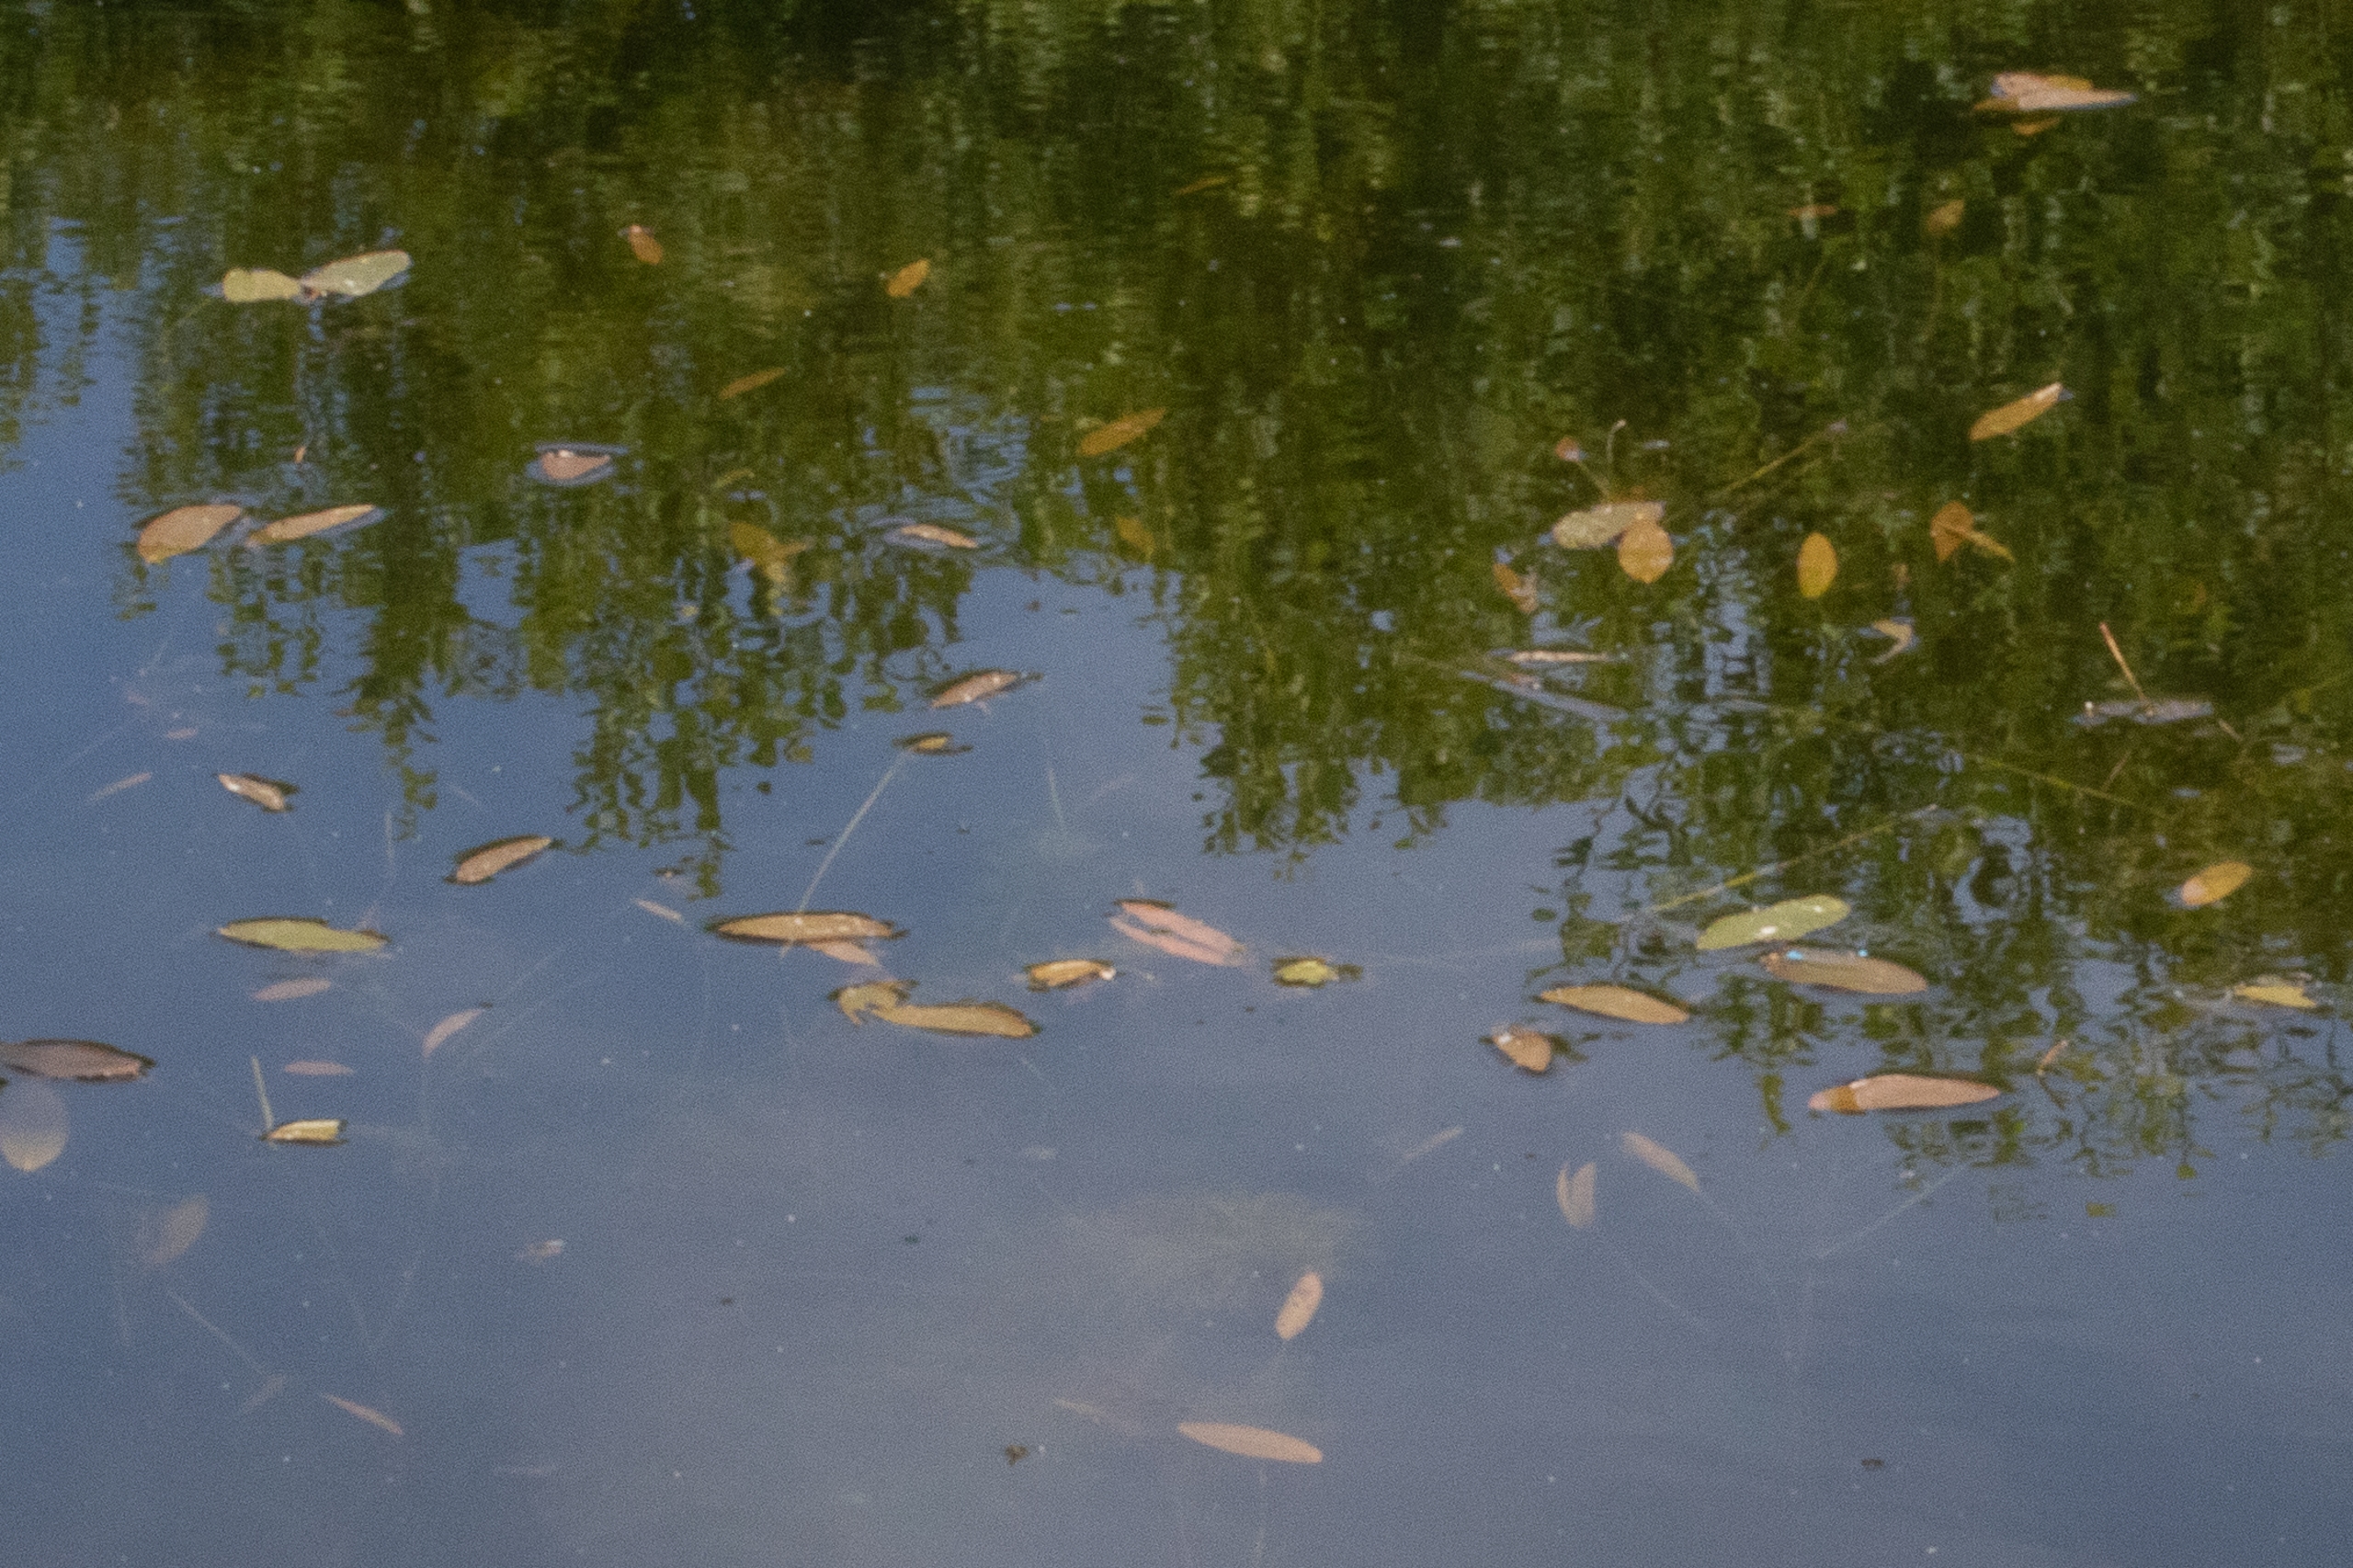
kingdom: Plantae
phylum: Tracheophyta
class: Liliopsida
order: Alismatales
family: Potamogetonaceae
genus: Potamogeton
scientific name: Potamogeton
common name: Vandaks (Potamogeton-slægten)
